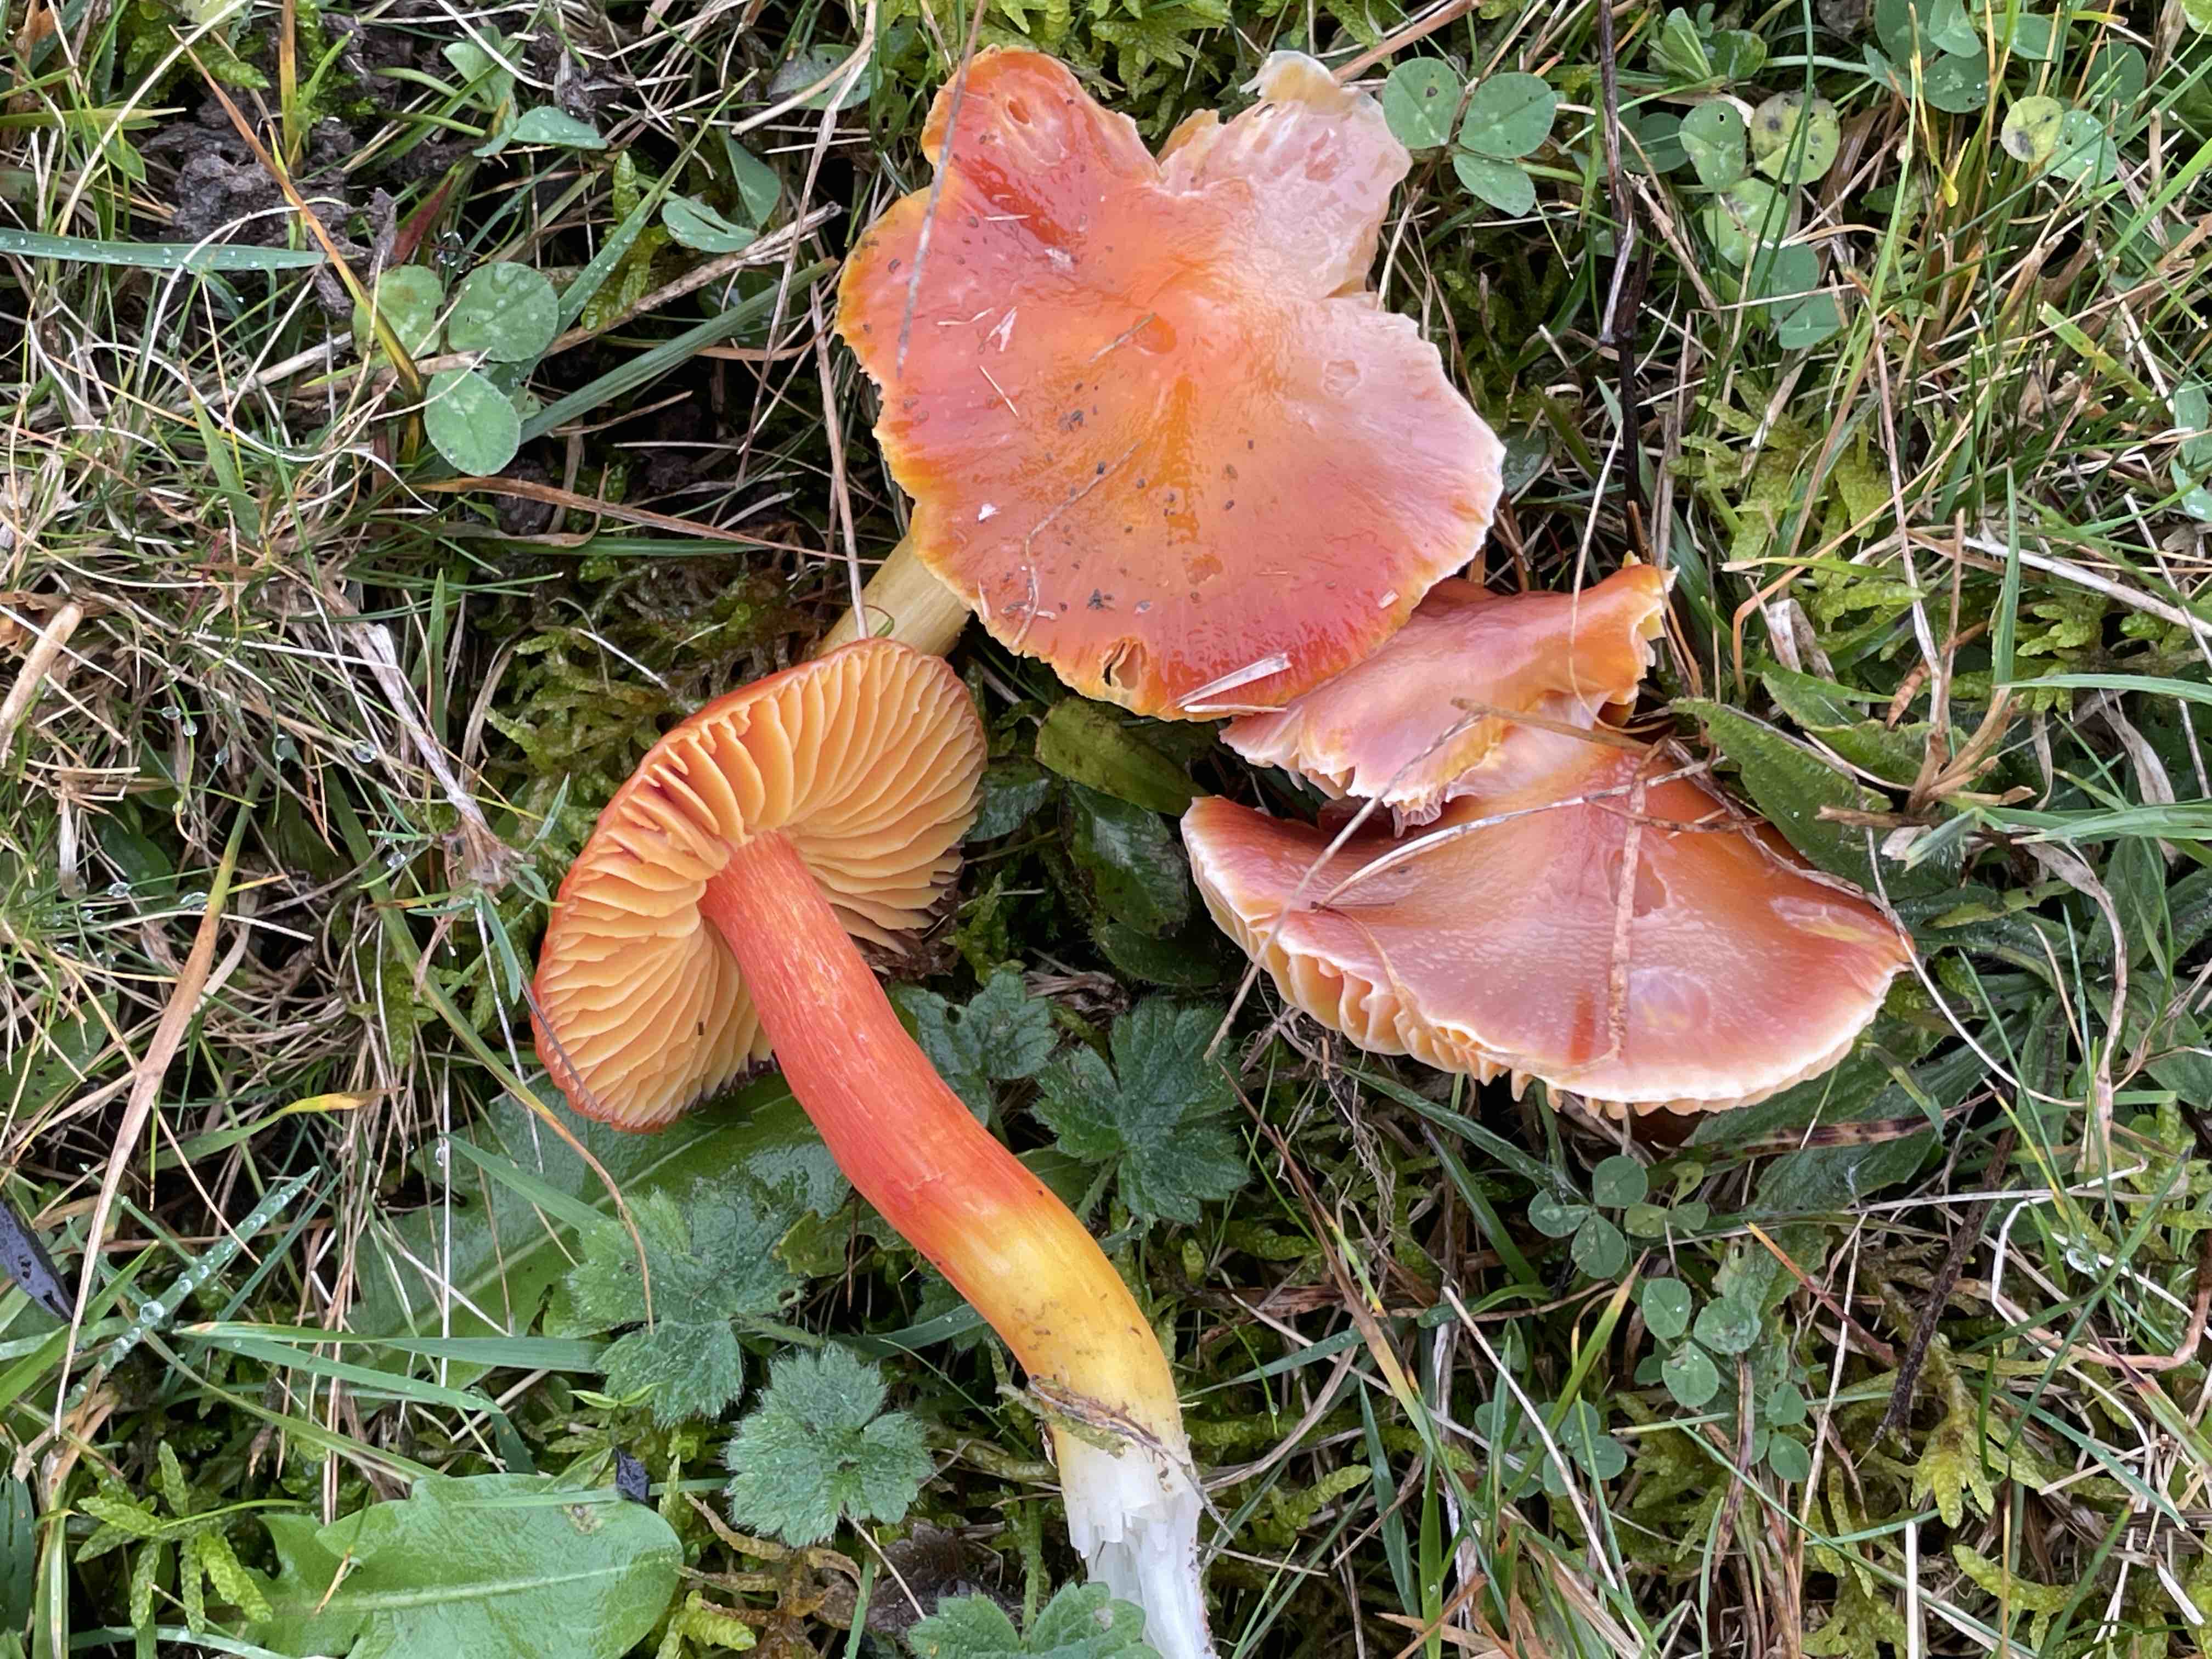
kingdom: Fungi
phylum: Basidiomycota
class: Agaricomycetes
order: Agaricales
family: Hygrophoraceae
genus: Hygrocybe
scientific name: Hygrocybe punicea
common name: skarlagen-vokshat
